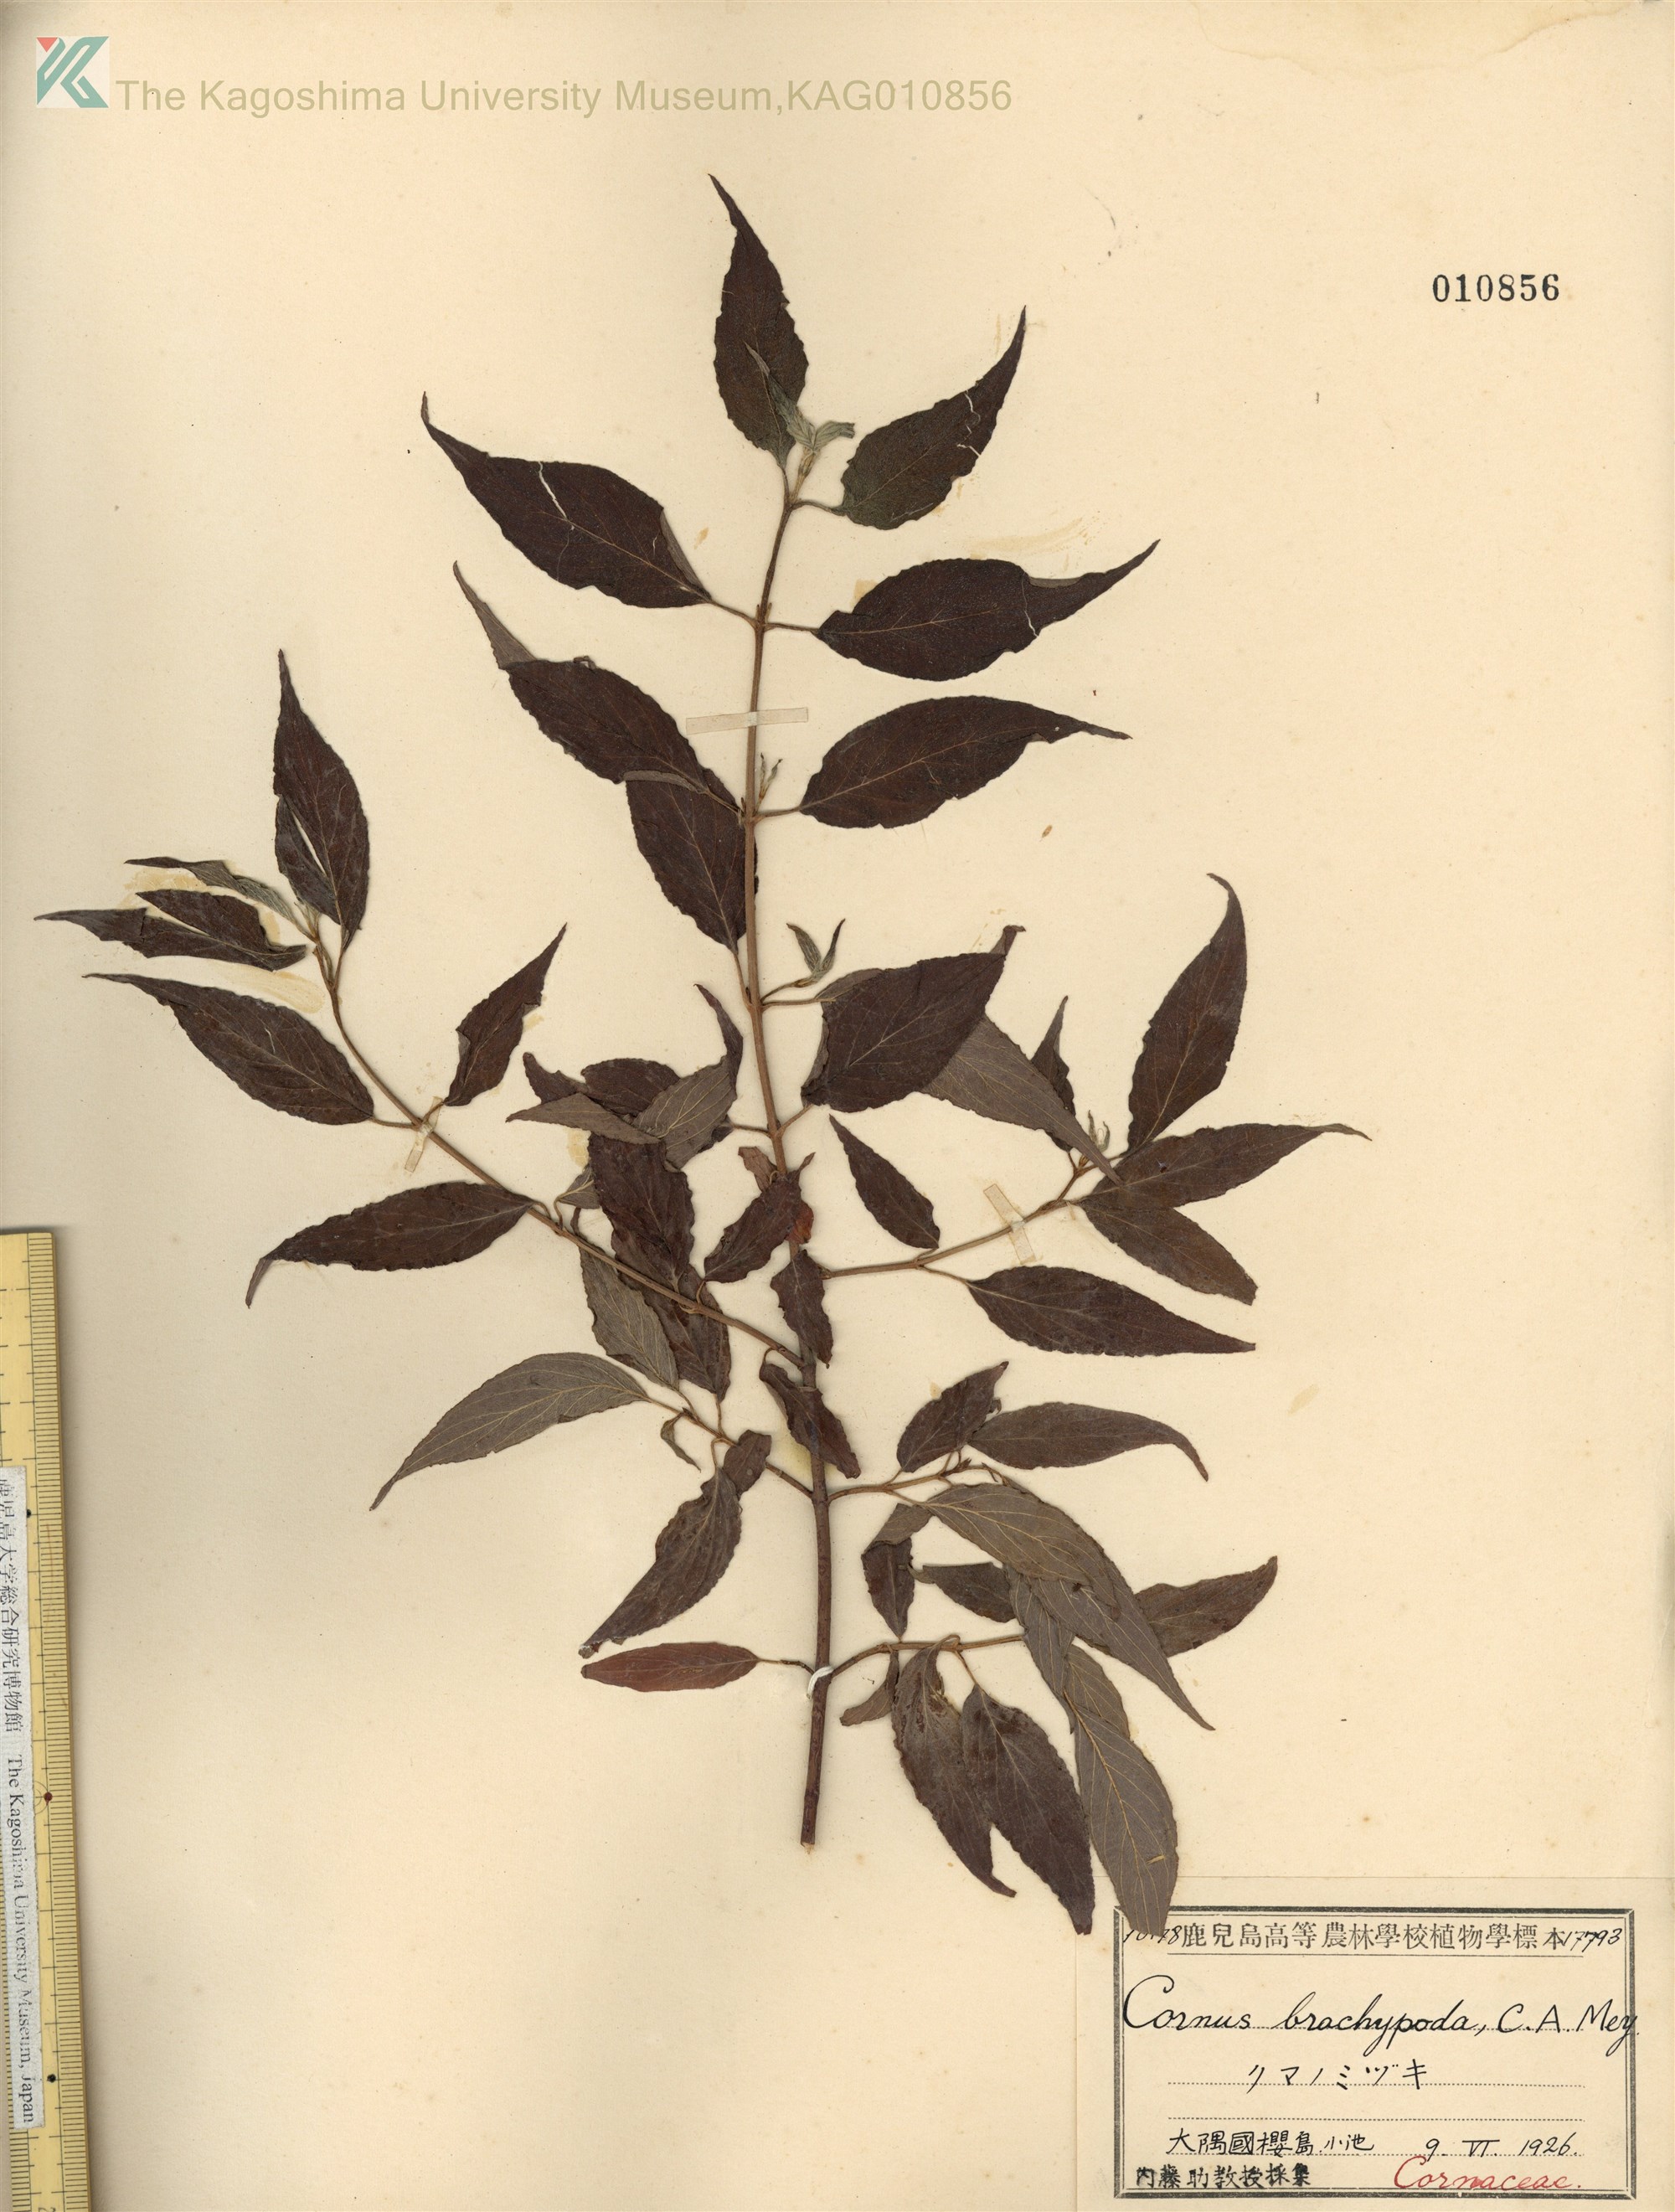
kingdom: Plantae
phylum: Tracheophyta
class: Magnoliopsida
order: Cornales
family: Cornaceae
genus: Cornus
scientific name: Cornus macrophylla
